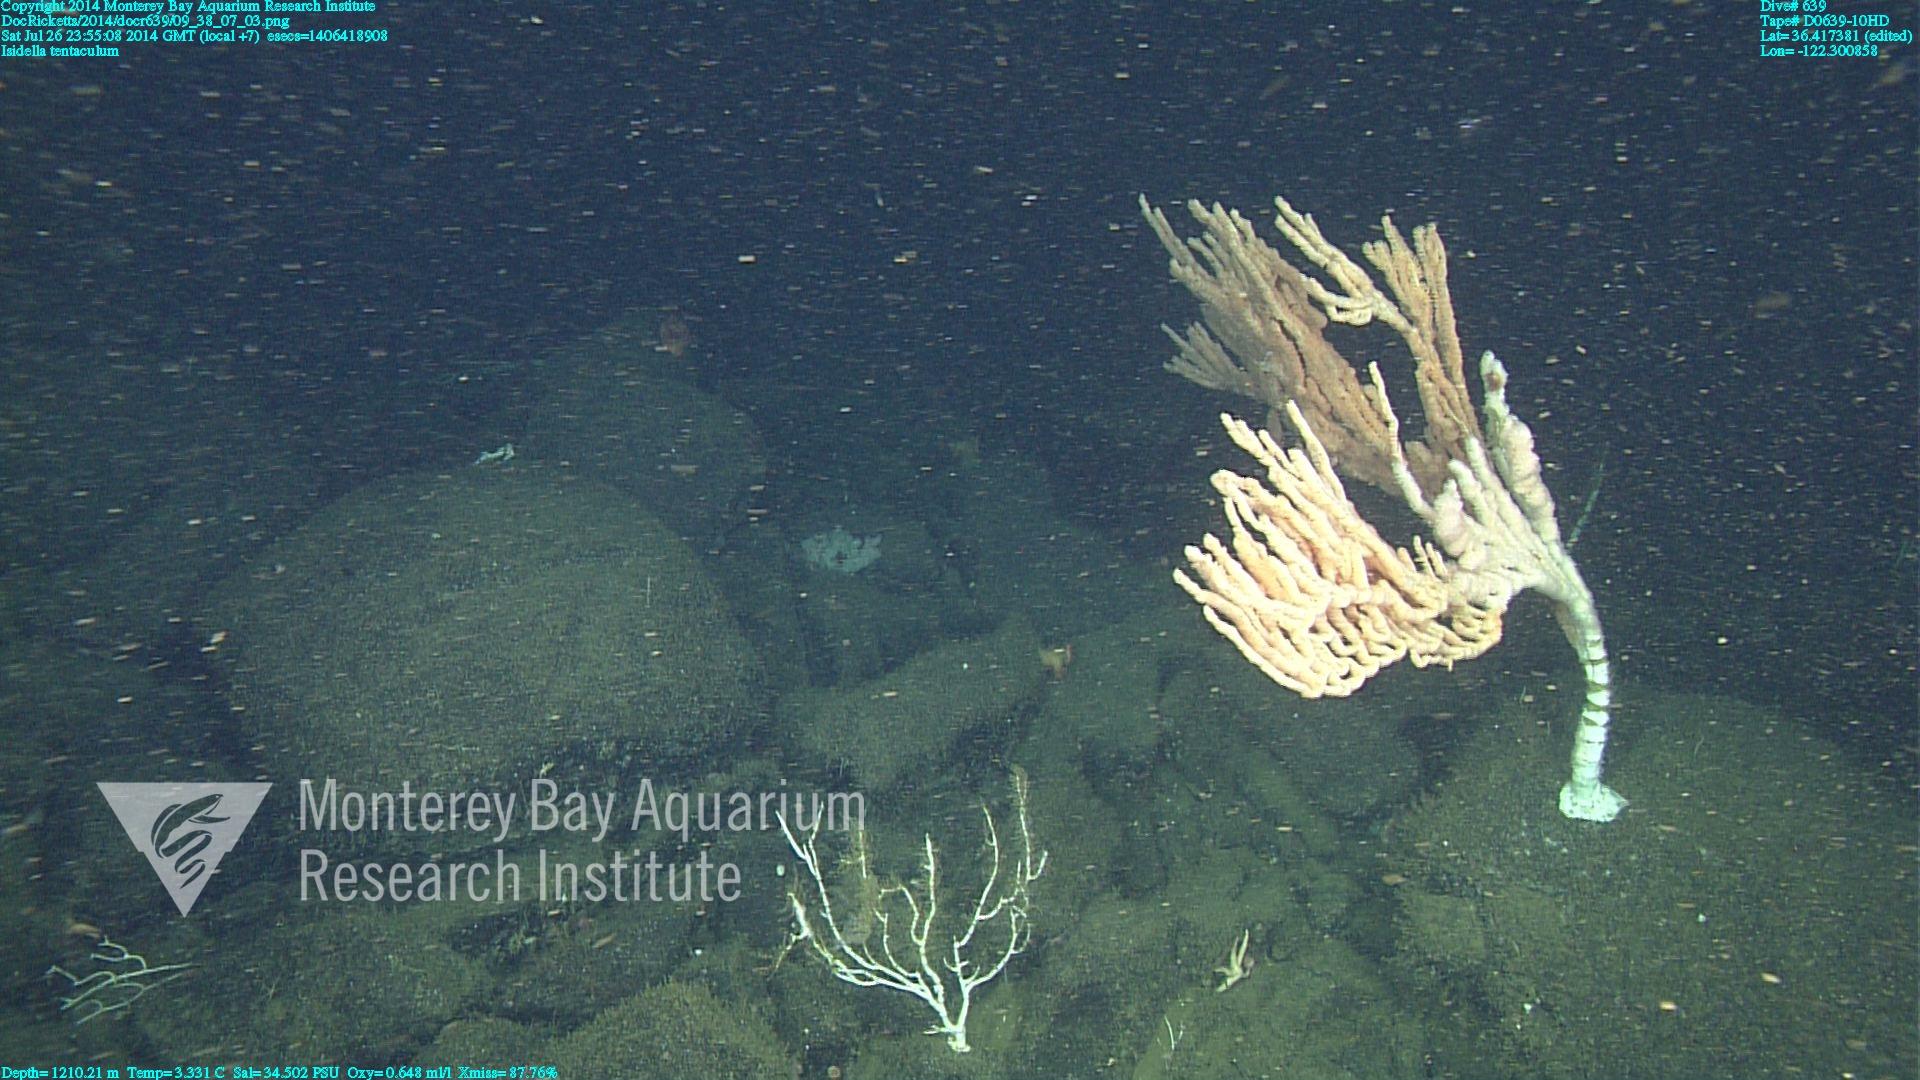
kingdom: Animalia
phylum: Cnidaria
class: Anthozoa
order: Scleralcyonacea
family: Keratoisididae
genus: Isidella
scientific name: Isidella tentaculum
